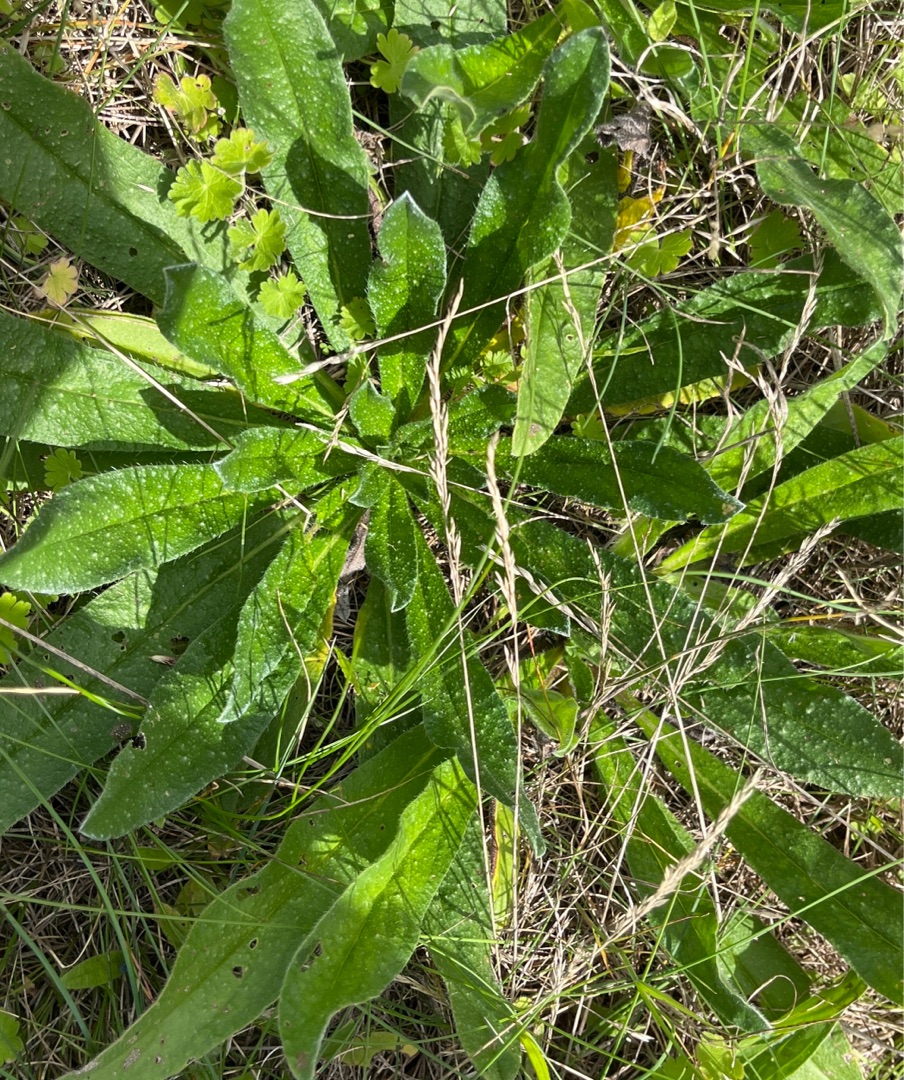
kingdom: Plantae
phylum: Tracheophyta
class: Magnoliopsida
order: Boraginales
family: Boraginaceae
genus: Echium
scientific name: Echium vulgare
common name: Slangehoved
